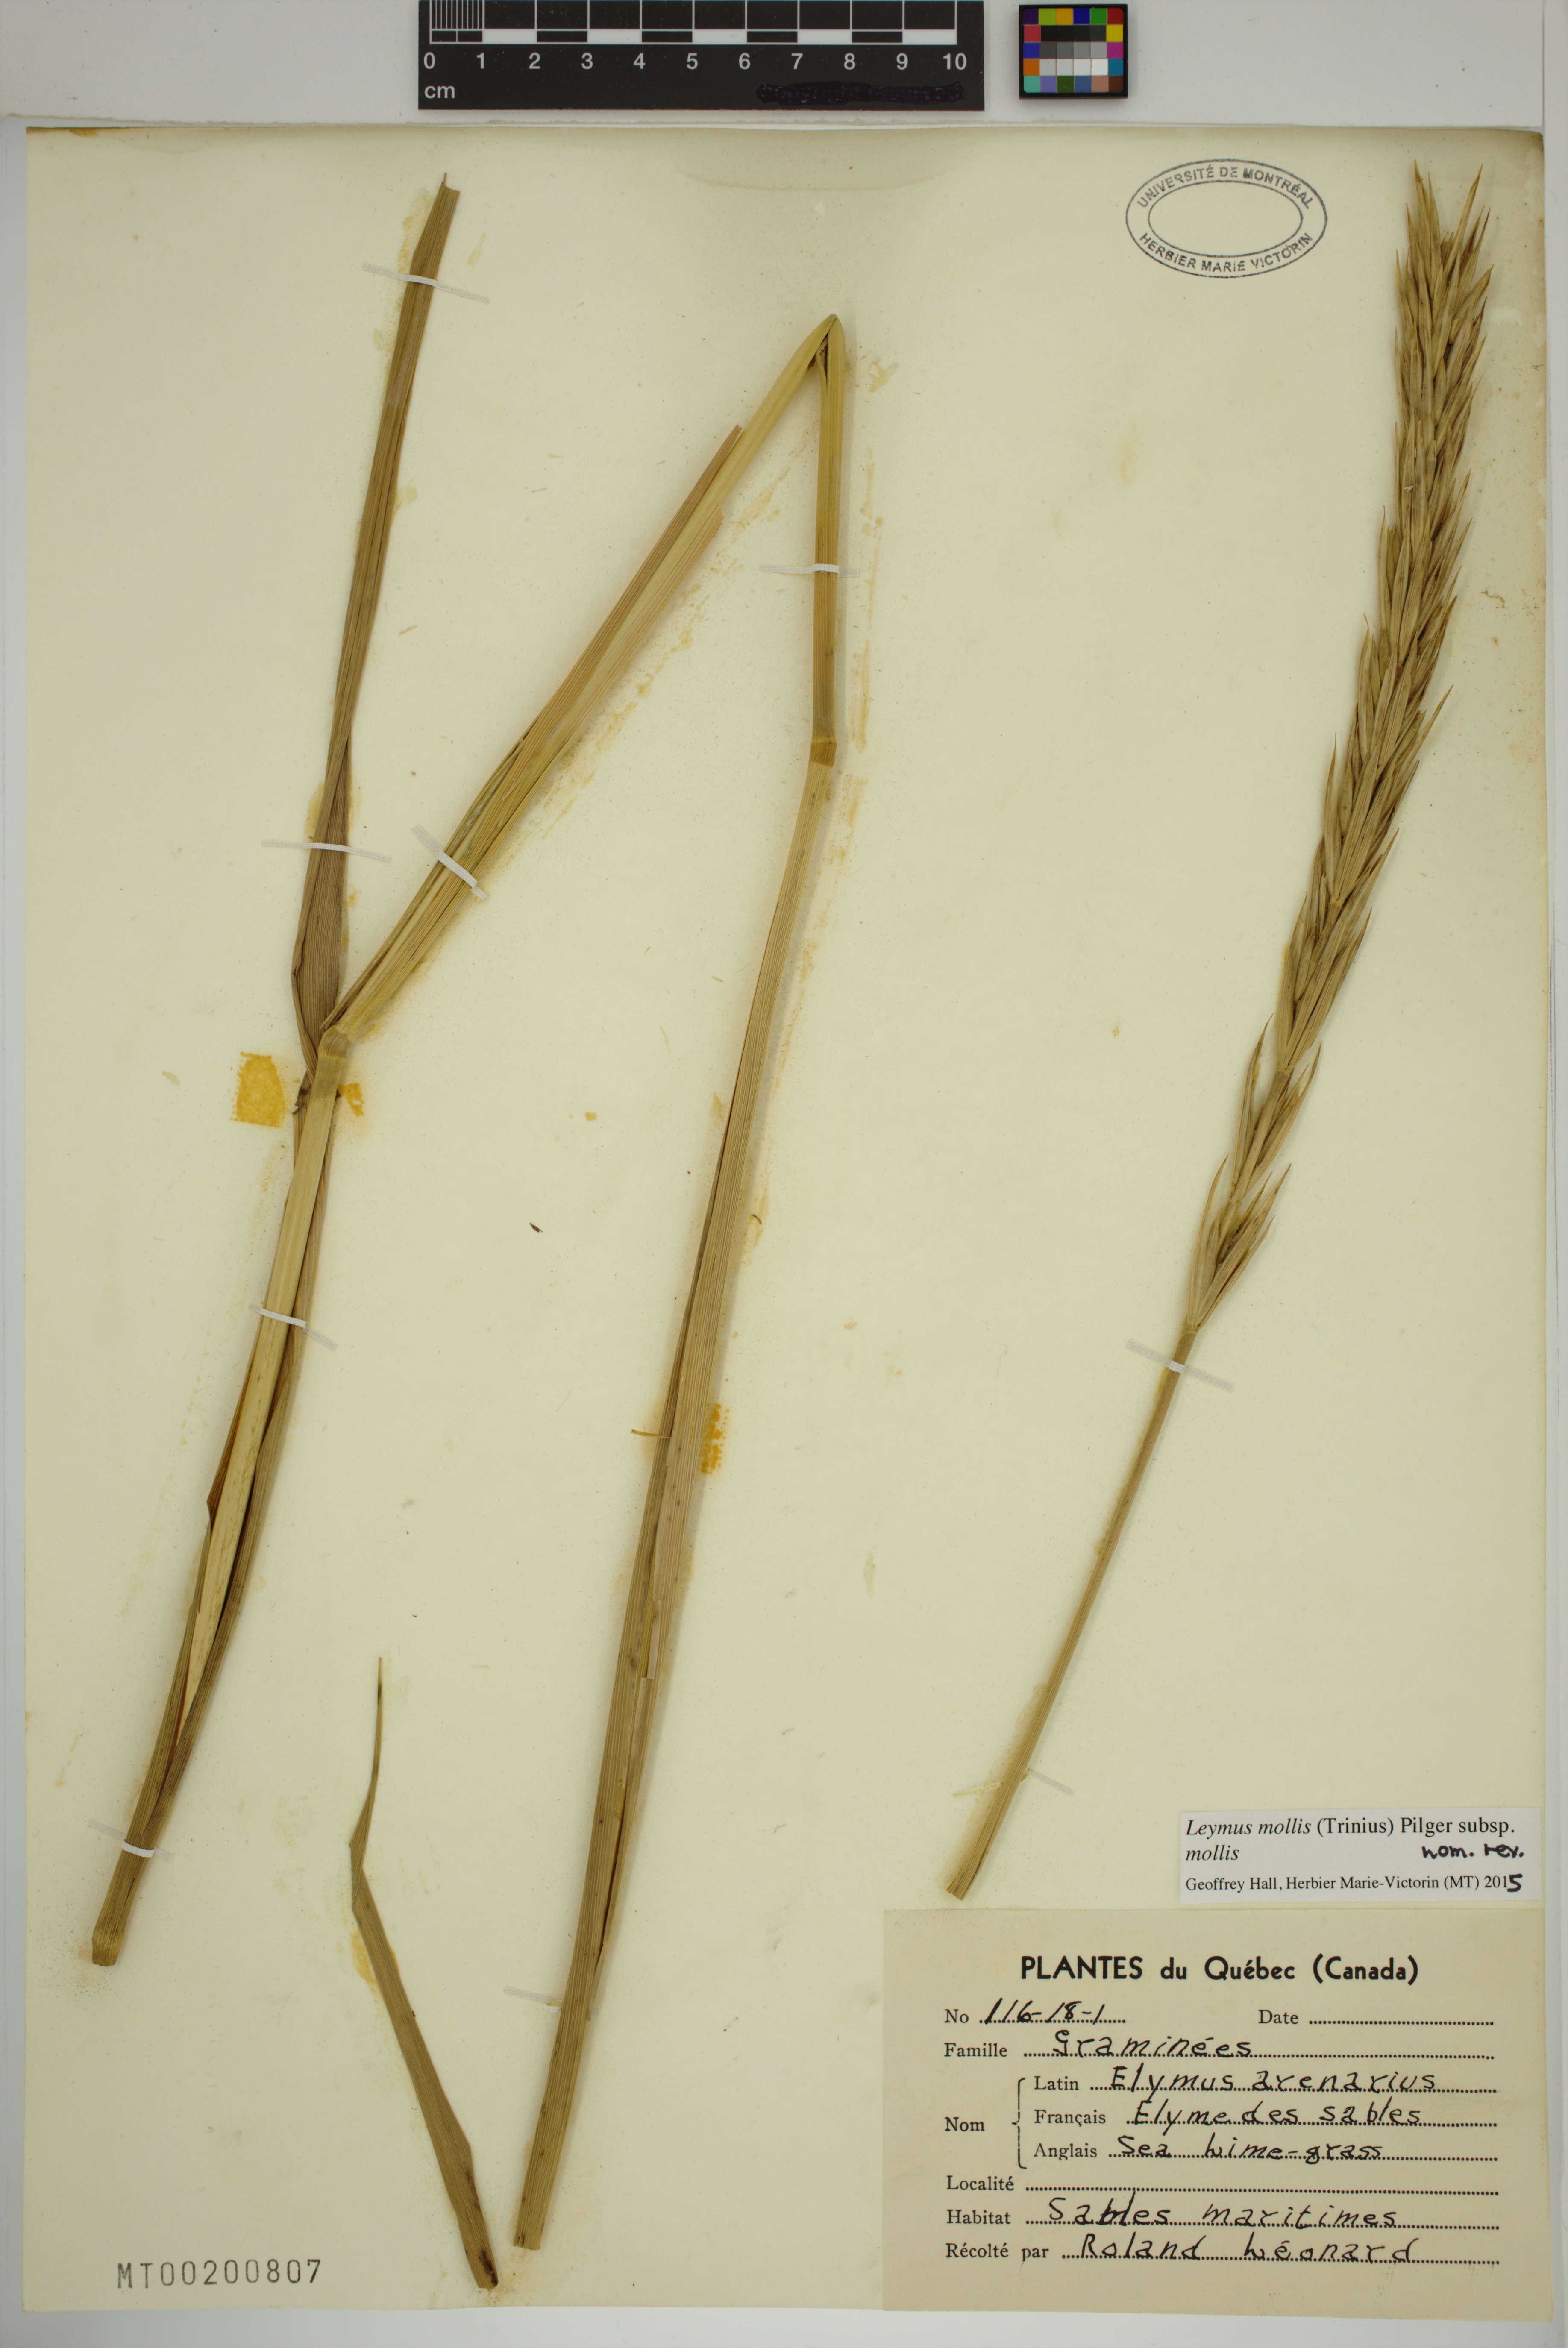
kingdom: Plantae
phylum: Tracheophyta
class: Liliopsida
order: Poales
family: Poaceae
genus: Leymus
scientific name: Leymus mollis
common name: American dune grass
